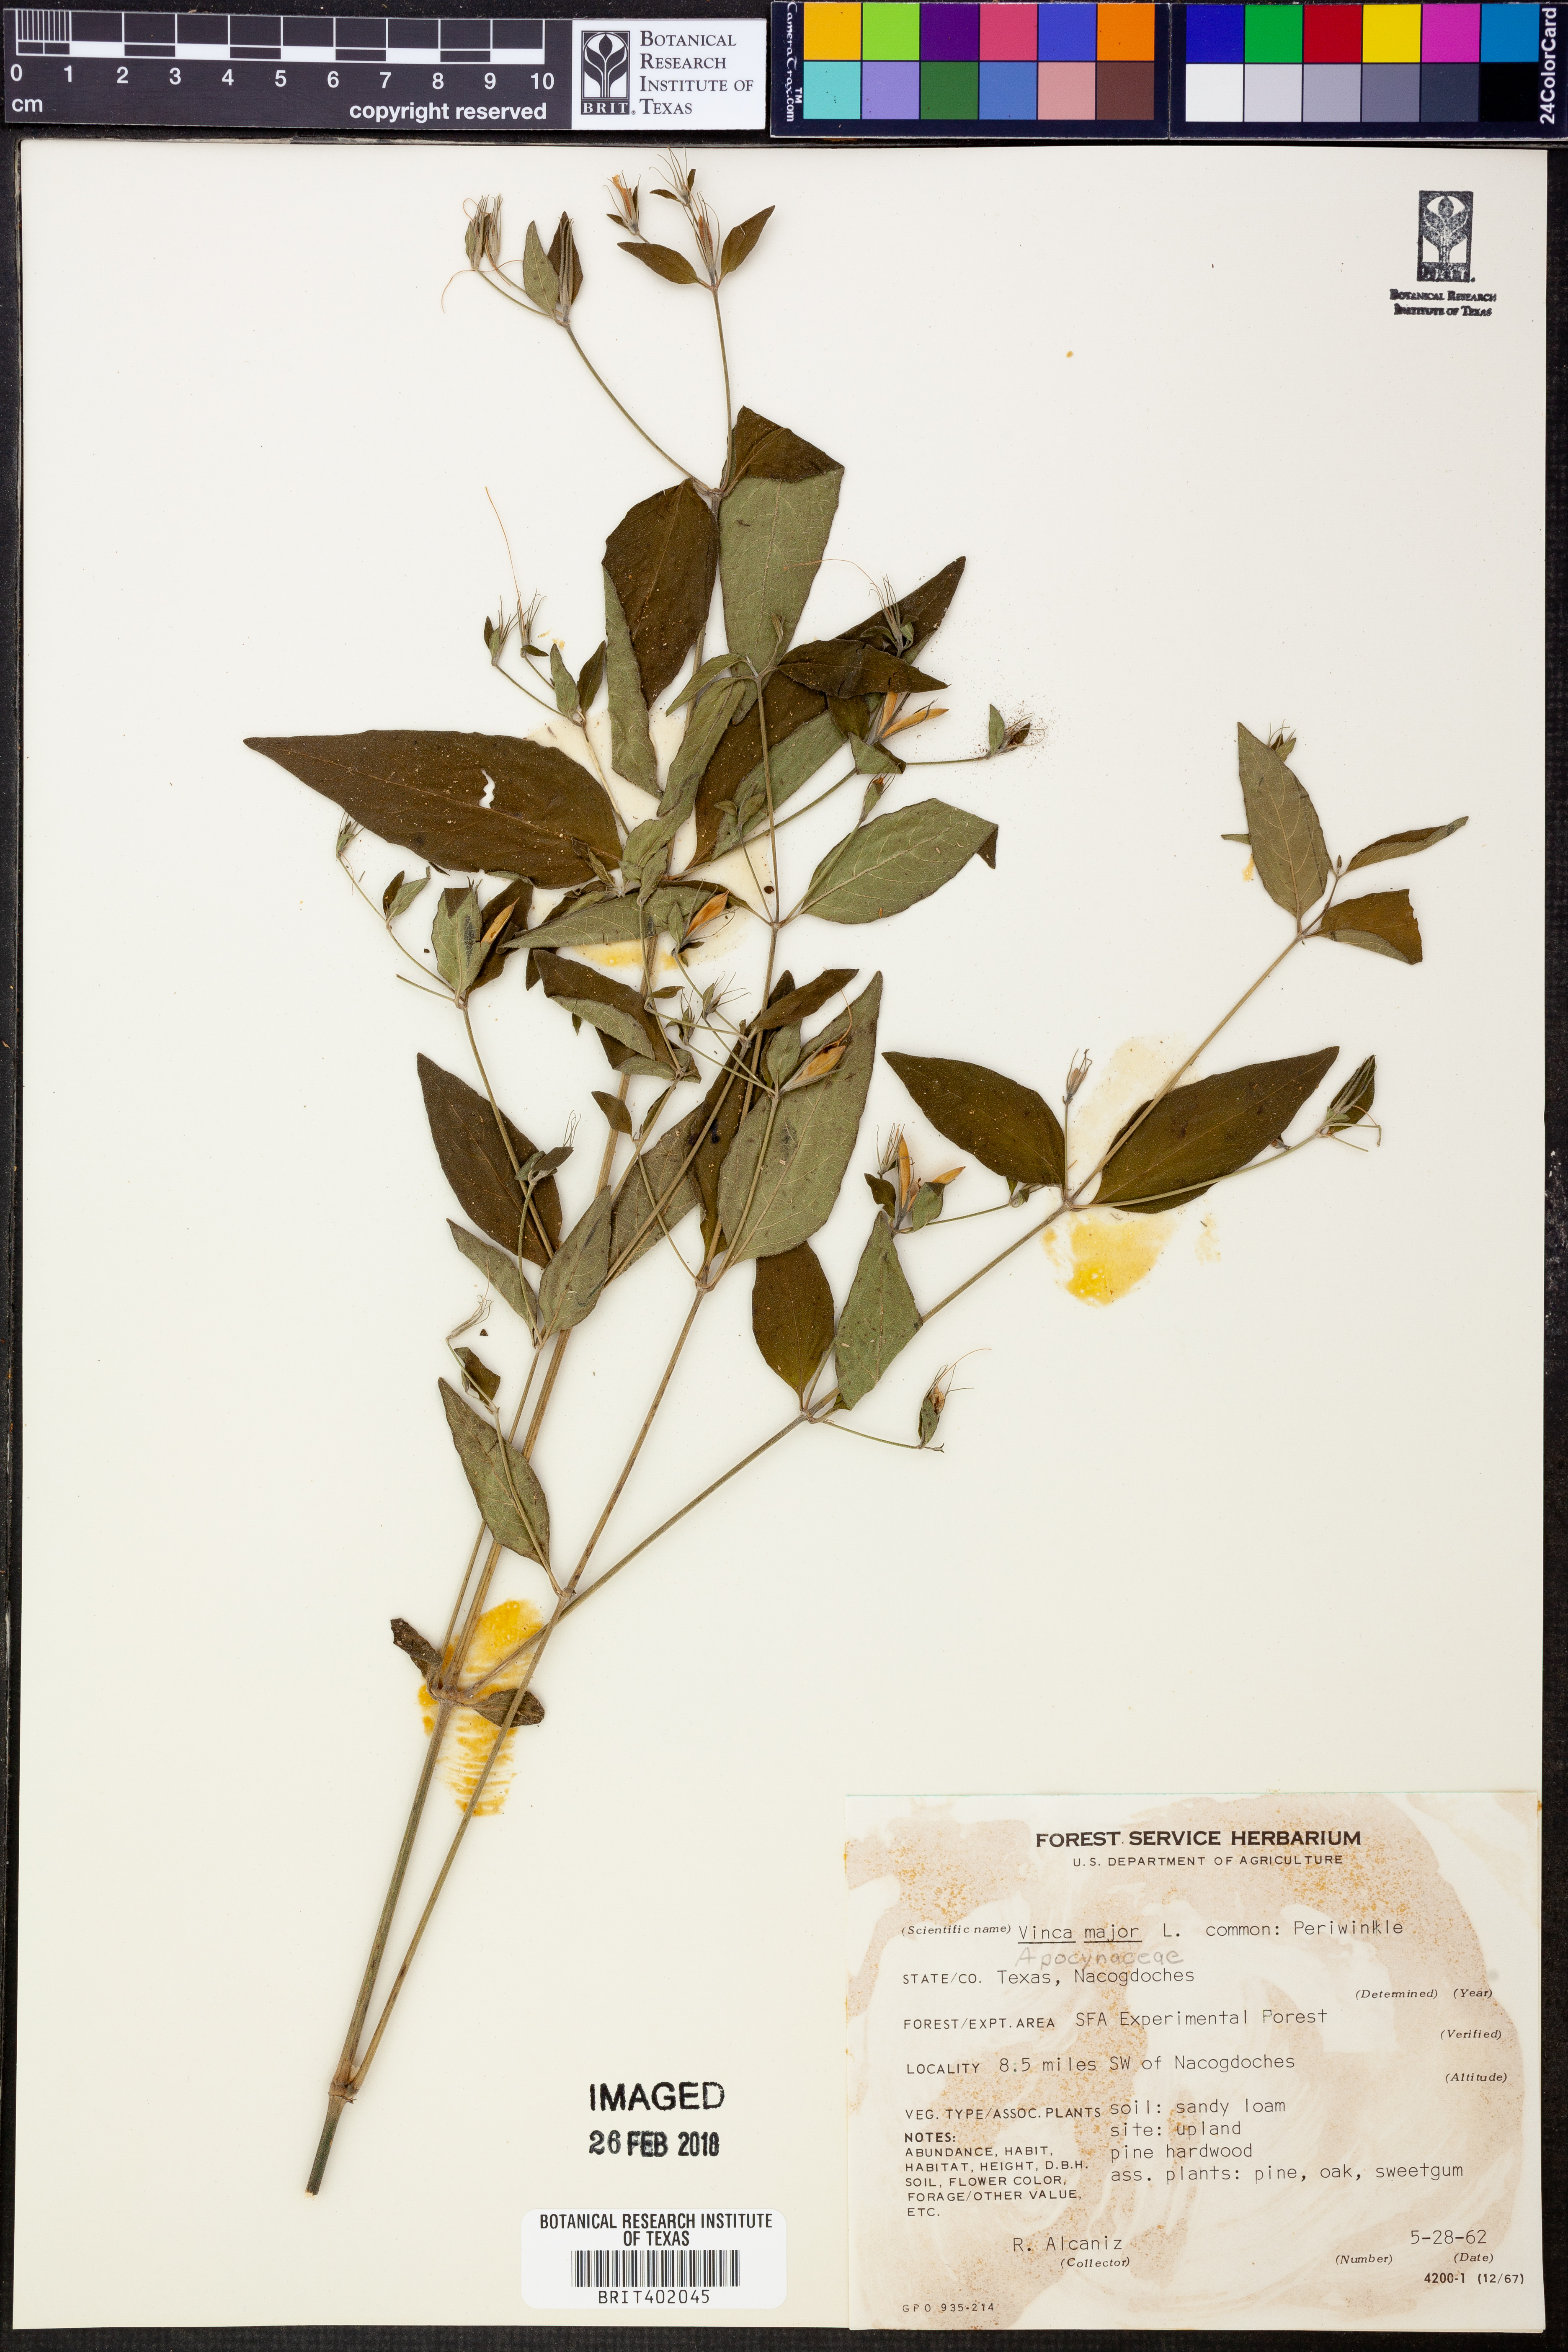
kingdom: Plantae
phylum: Tracheophyta
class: Magnoliopsida
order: Gentianales
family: Apocynaceae
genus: Vinca
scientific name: Vinca major
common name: Greater periwinkle
